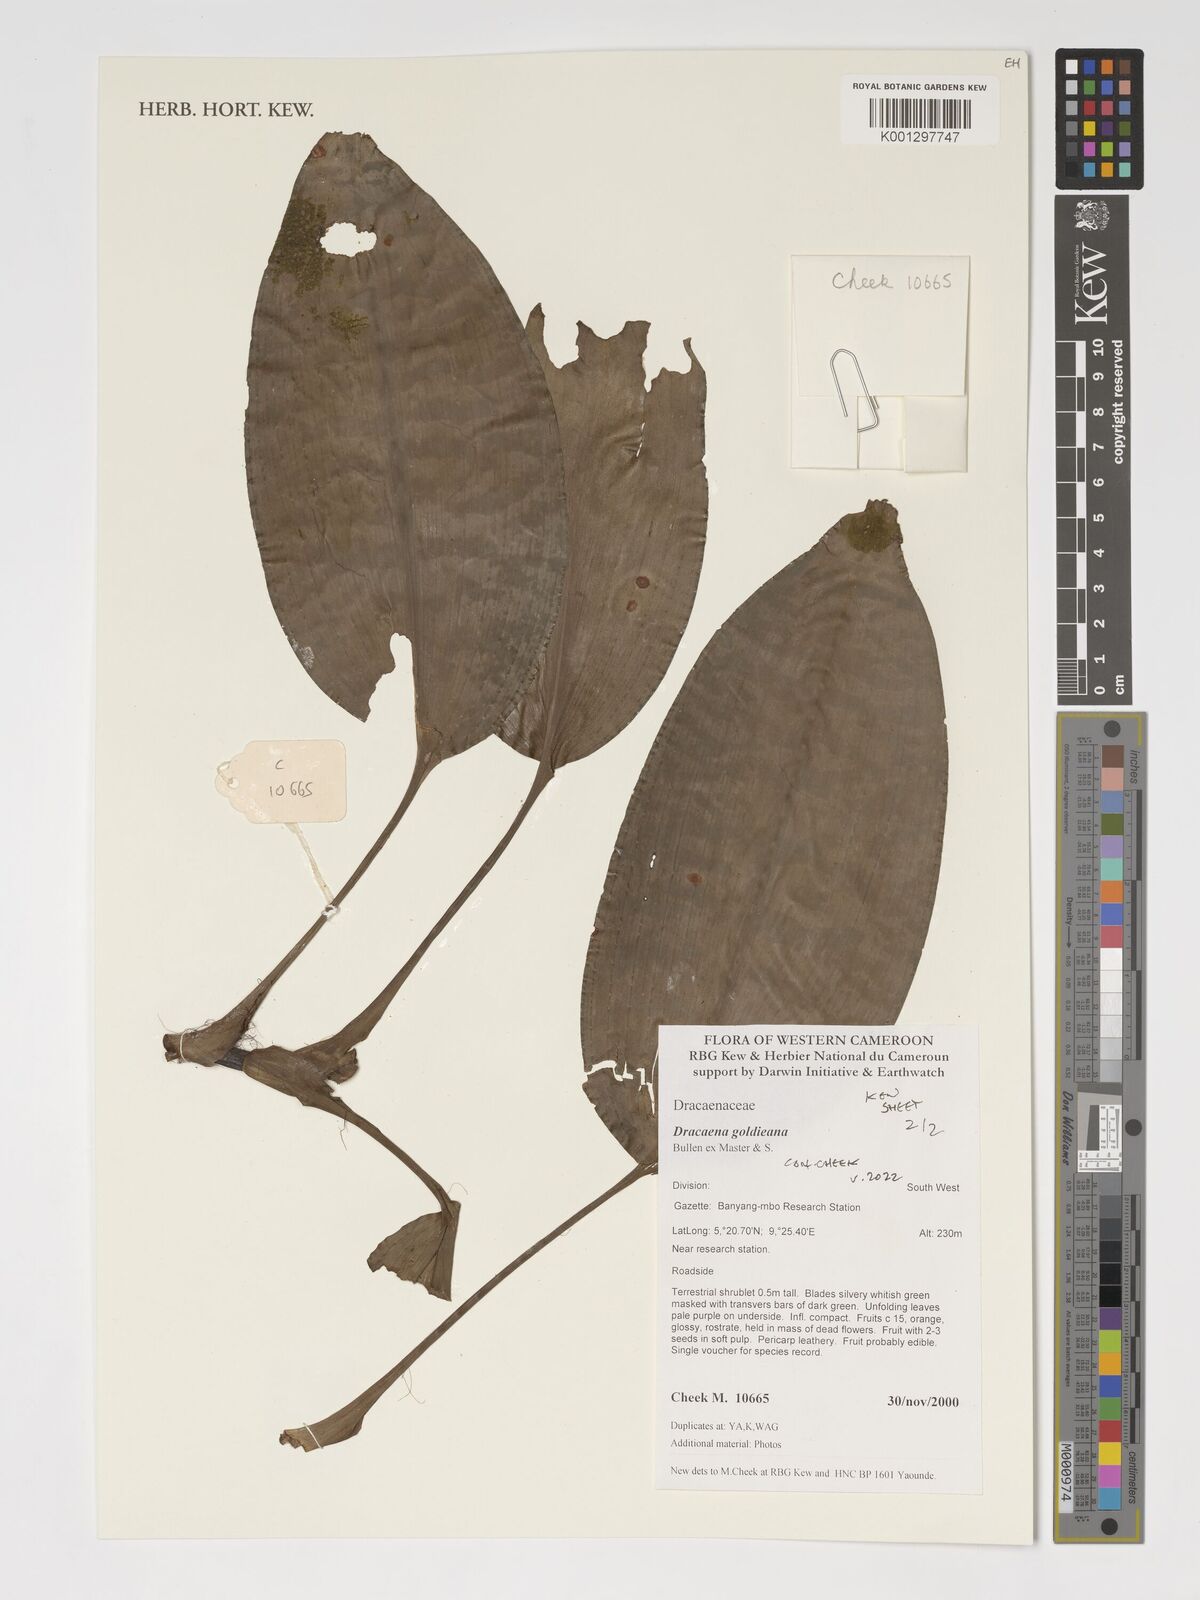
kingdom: Plantae
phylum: Tracheophyta
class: Liliopsida
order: Asparagales
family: Asparagaceae
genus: Dracaena
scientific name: Dracaena goldieana
